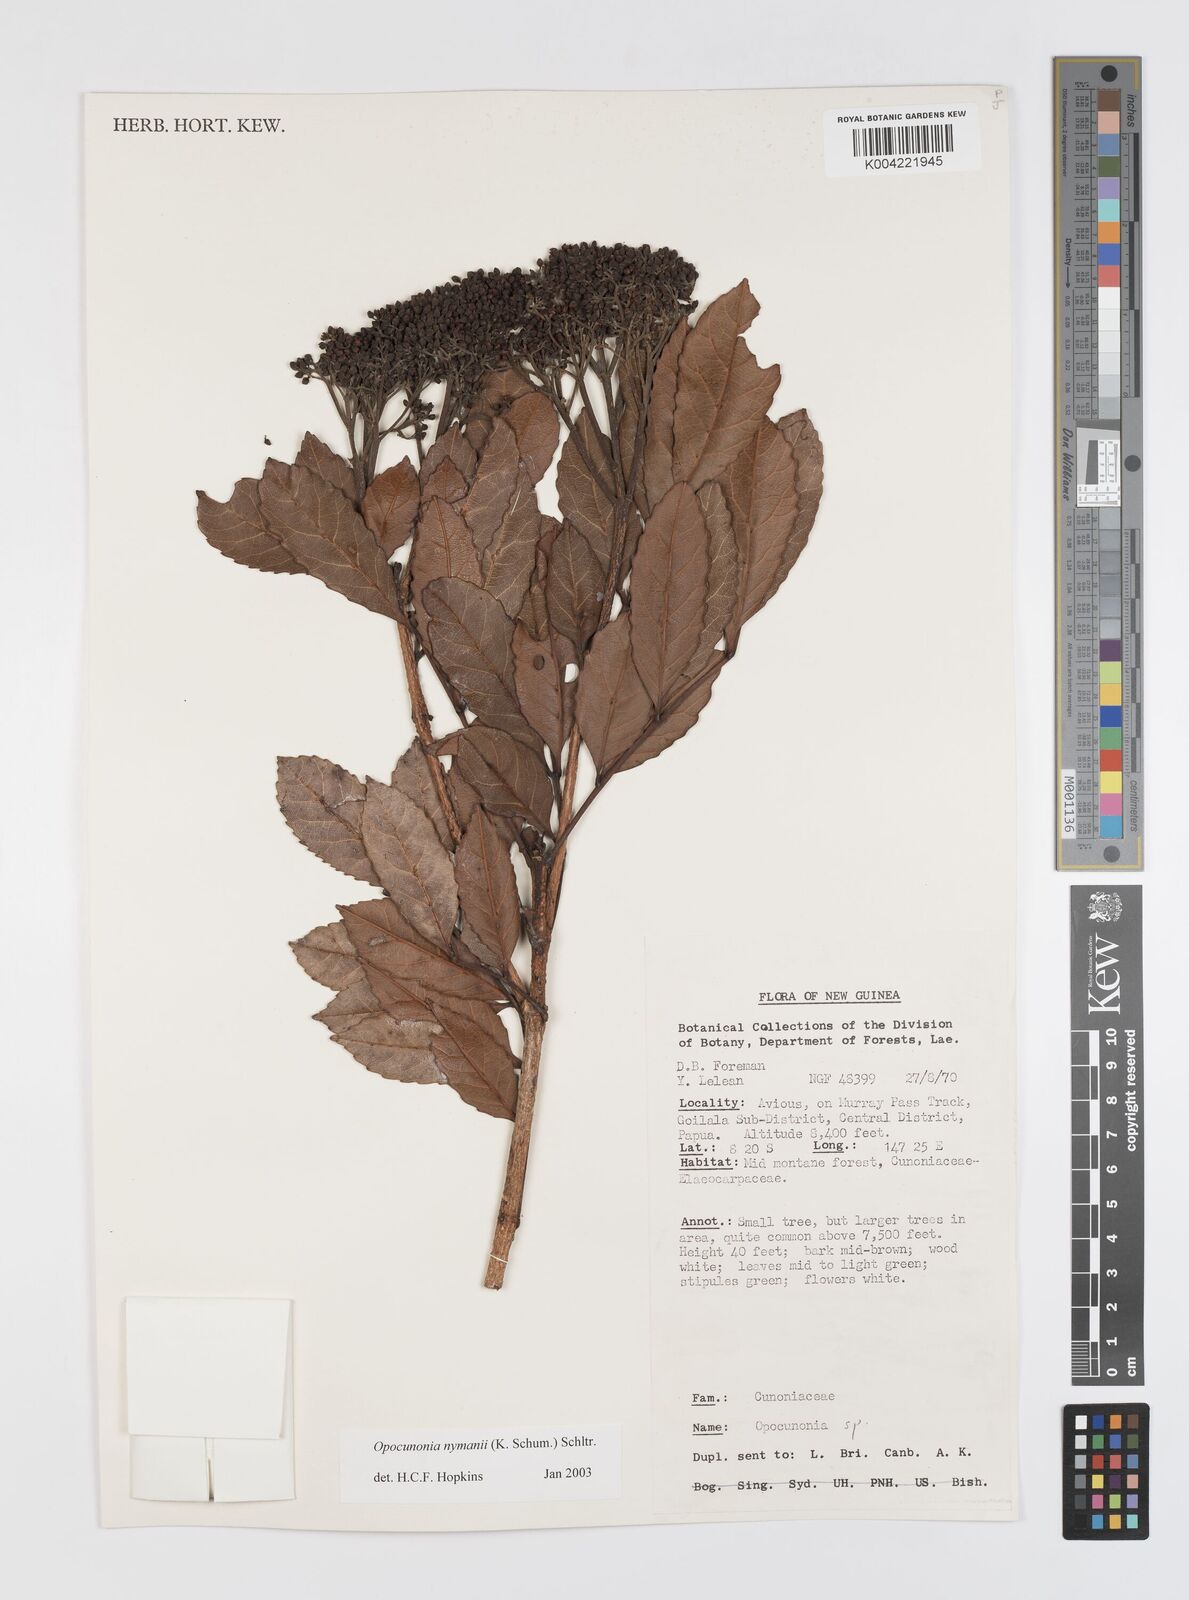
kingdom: Plantae
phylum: Tracheophyta
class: Magnoliopsida
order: Oxalidales
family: Cunoniaceae
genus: Opocunonia
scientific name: Opocunonia nymanii
